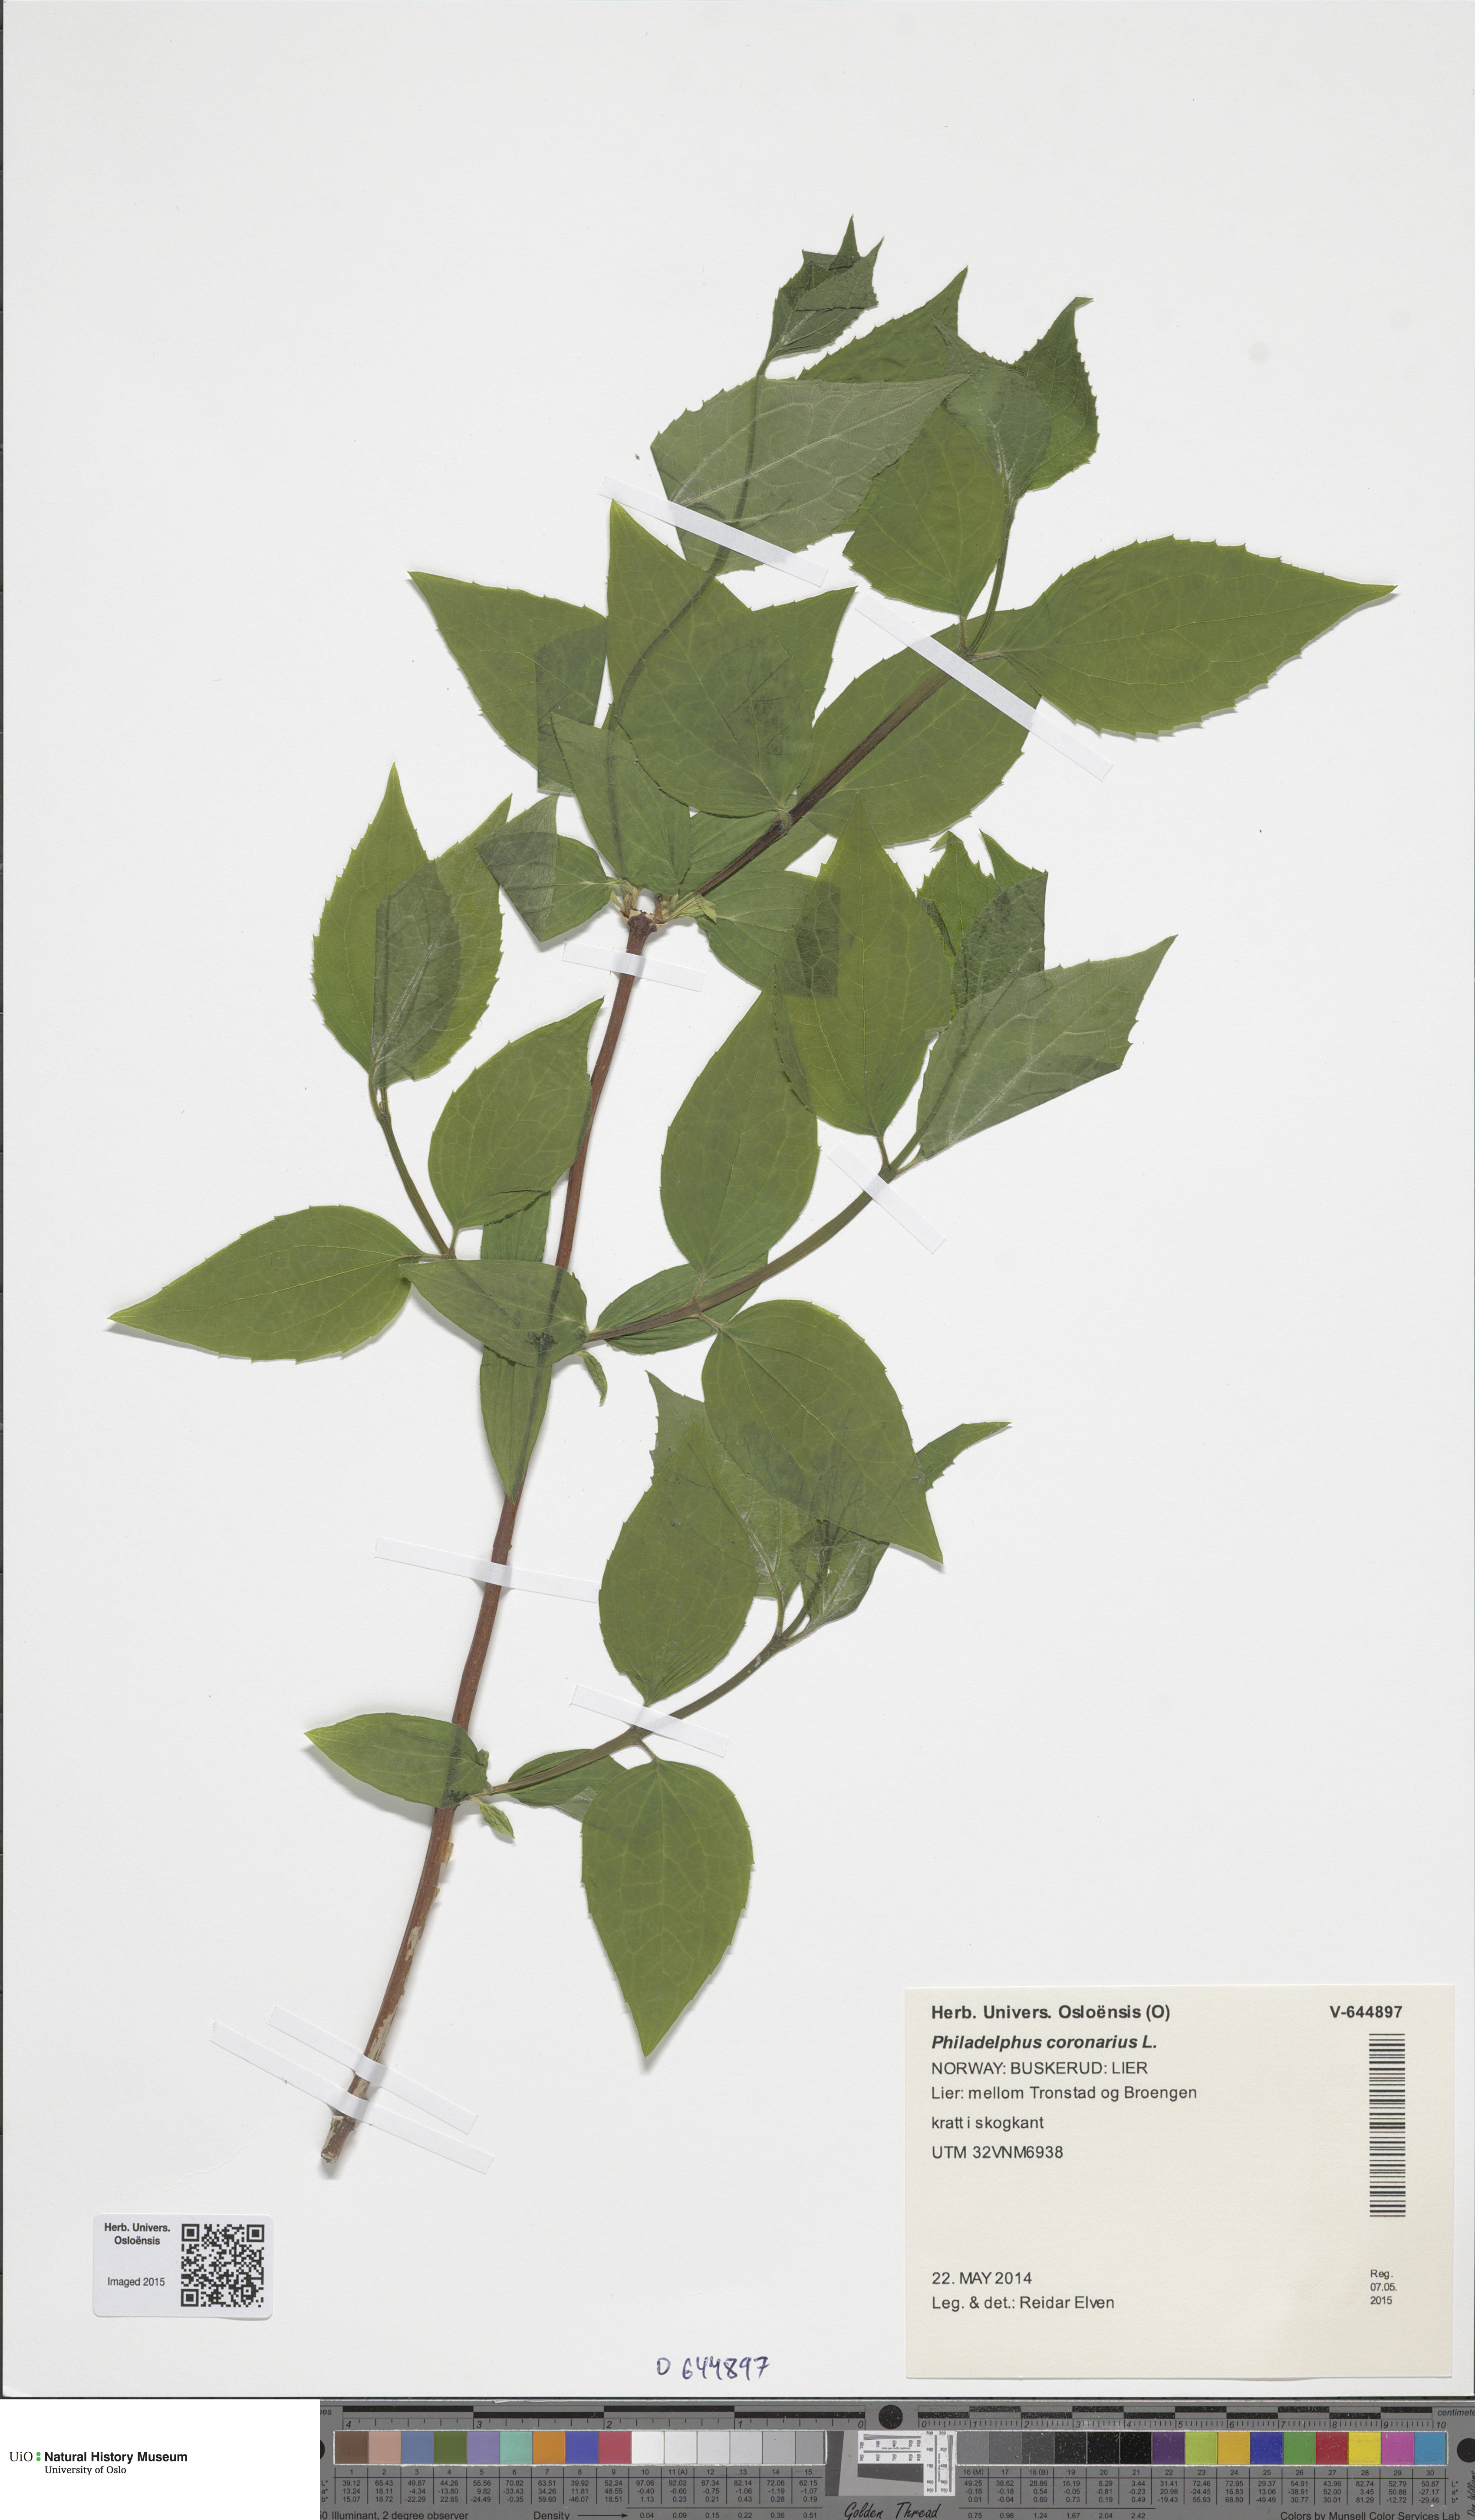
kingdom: Plantae
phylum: Tracheophyta
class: Magnoliopsida
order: Cornales
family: Hydrangeaceae
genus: Philadelphus
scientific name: Philadelphus coronarius
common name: Mock orange
